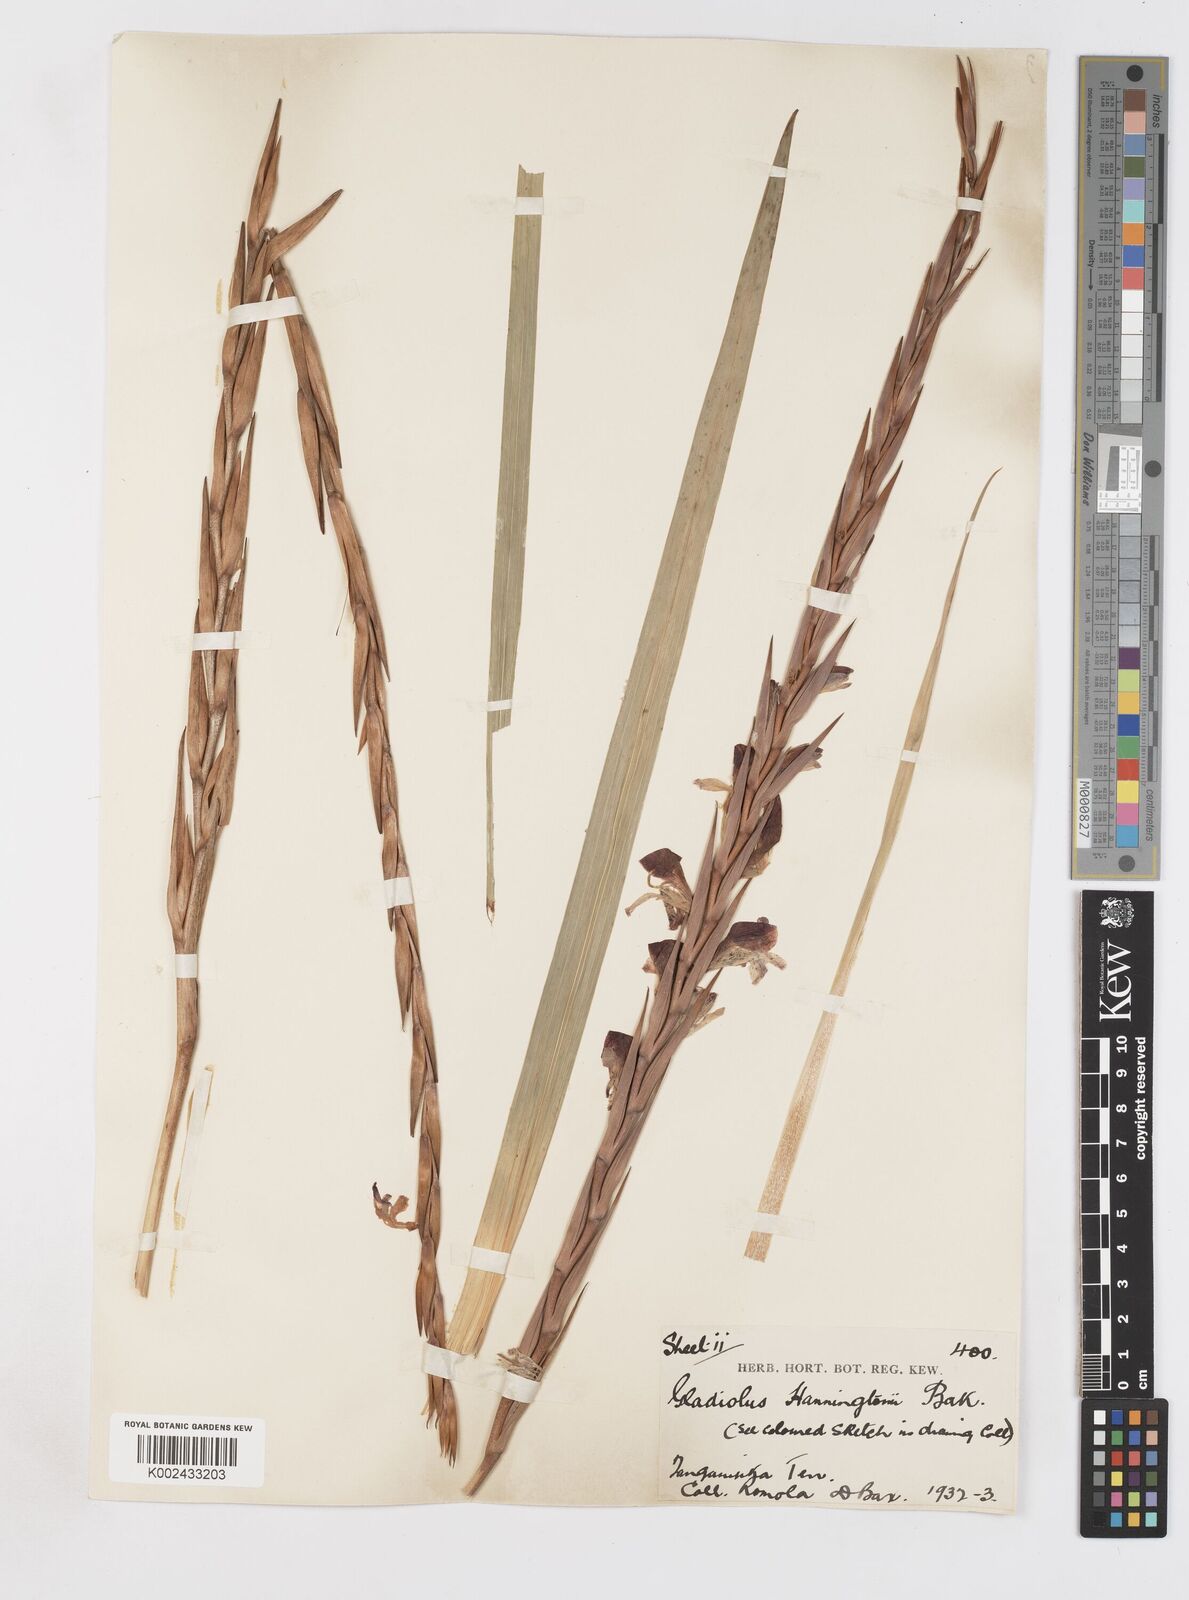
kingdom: Plantae
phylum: Tracheophyta
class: Liliopsida
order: Asparagales
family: Iridaceae
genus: Gladiolus
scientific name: Gladiolus gregarius
